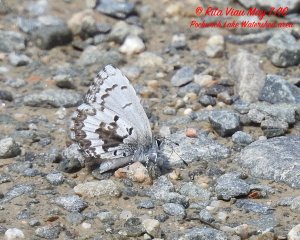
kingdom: Animalia
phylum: Arthropoda
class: Insecta
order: Lepidoptera
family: Lycaenidae
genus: Celastrina
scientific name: Celastrina lucia
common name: Northern Spring Azure
